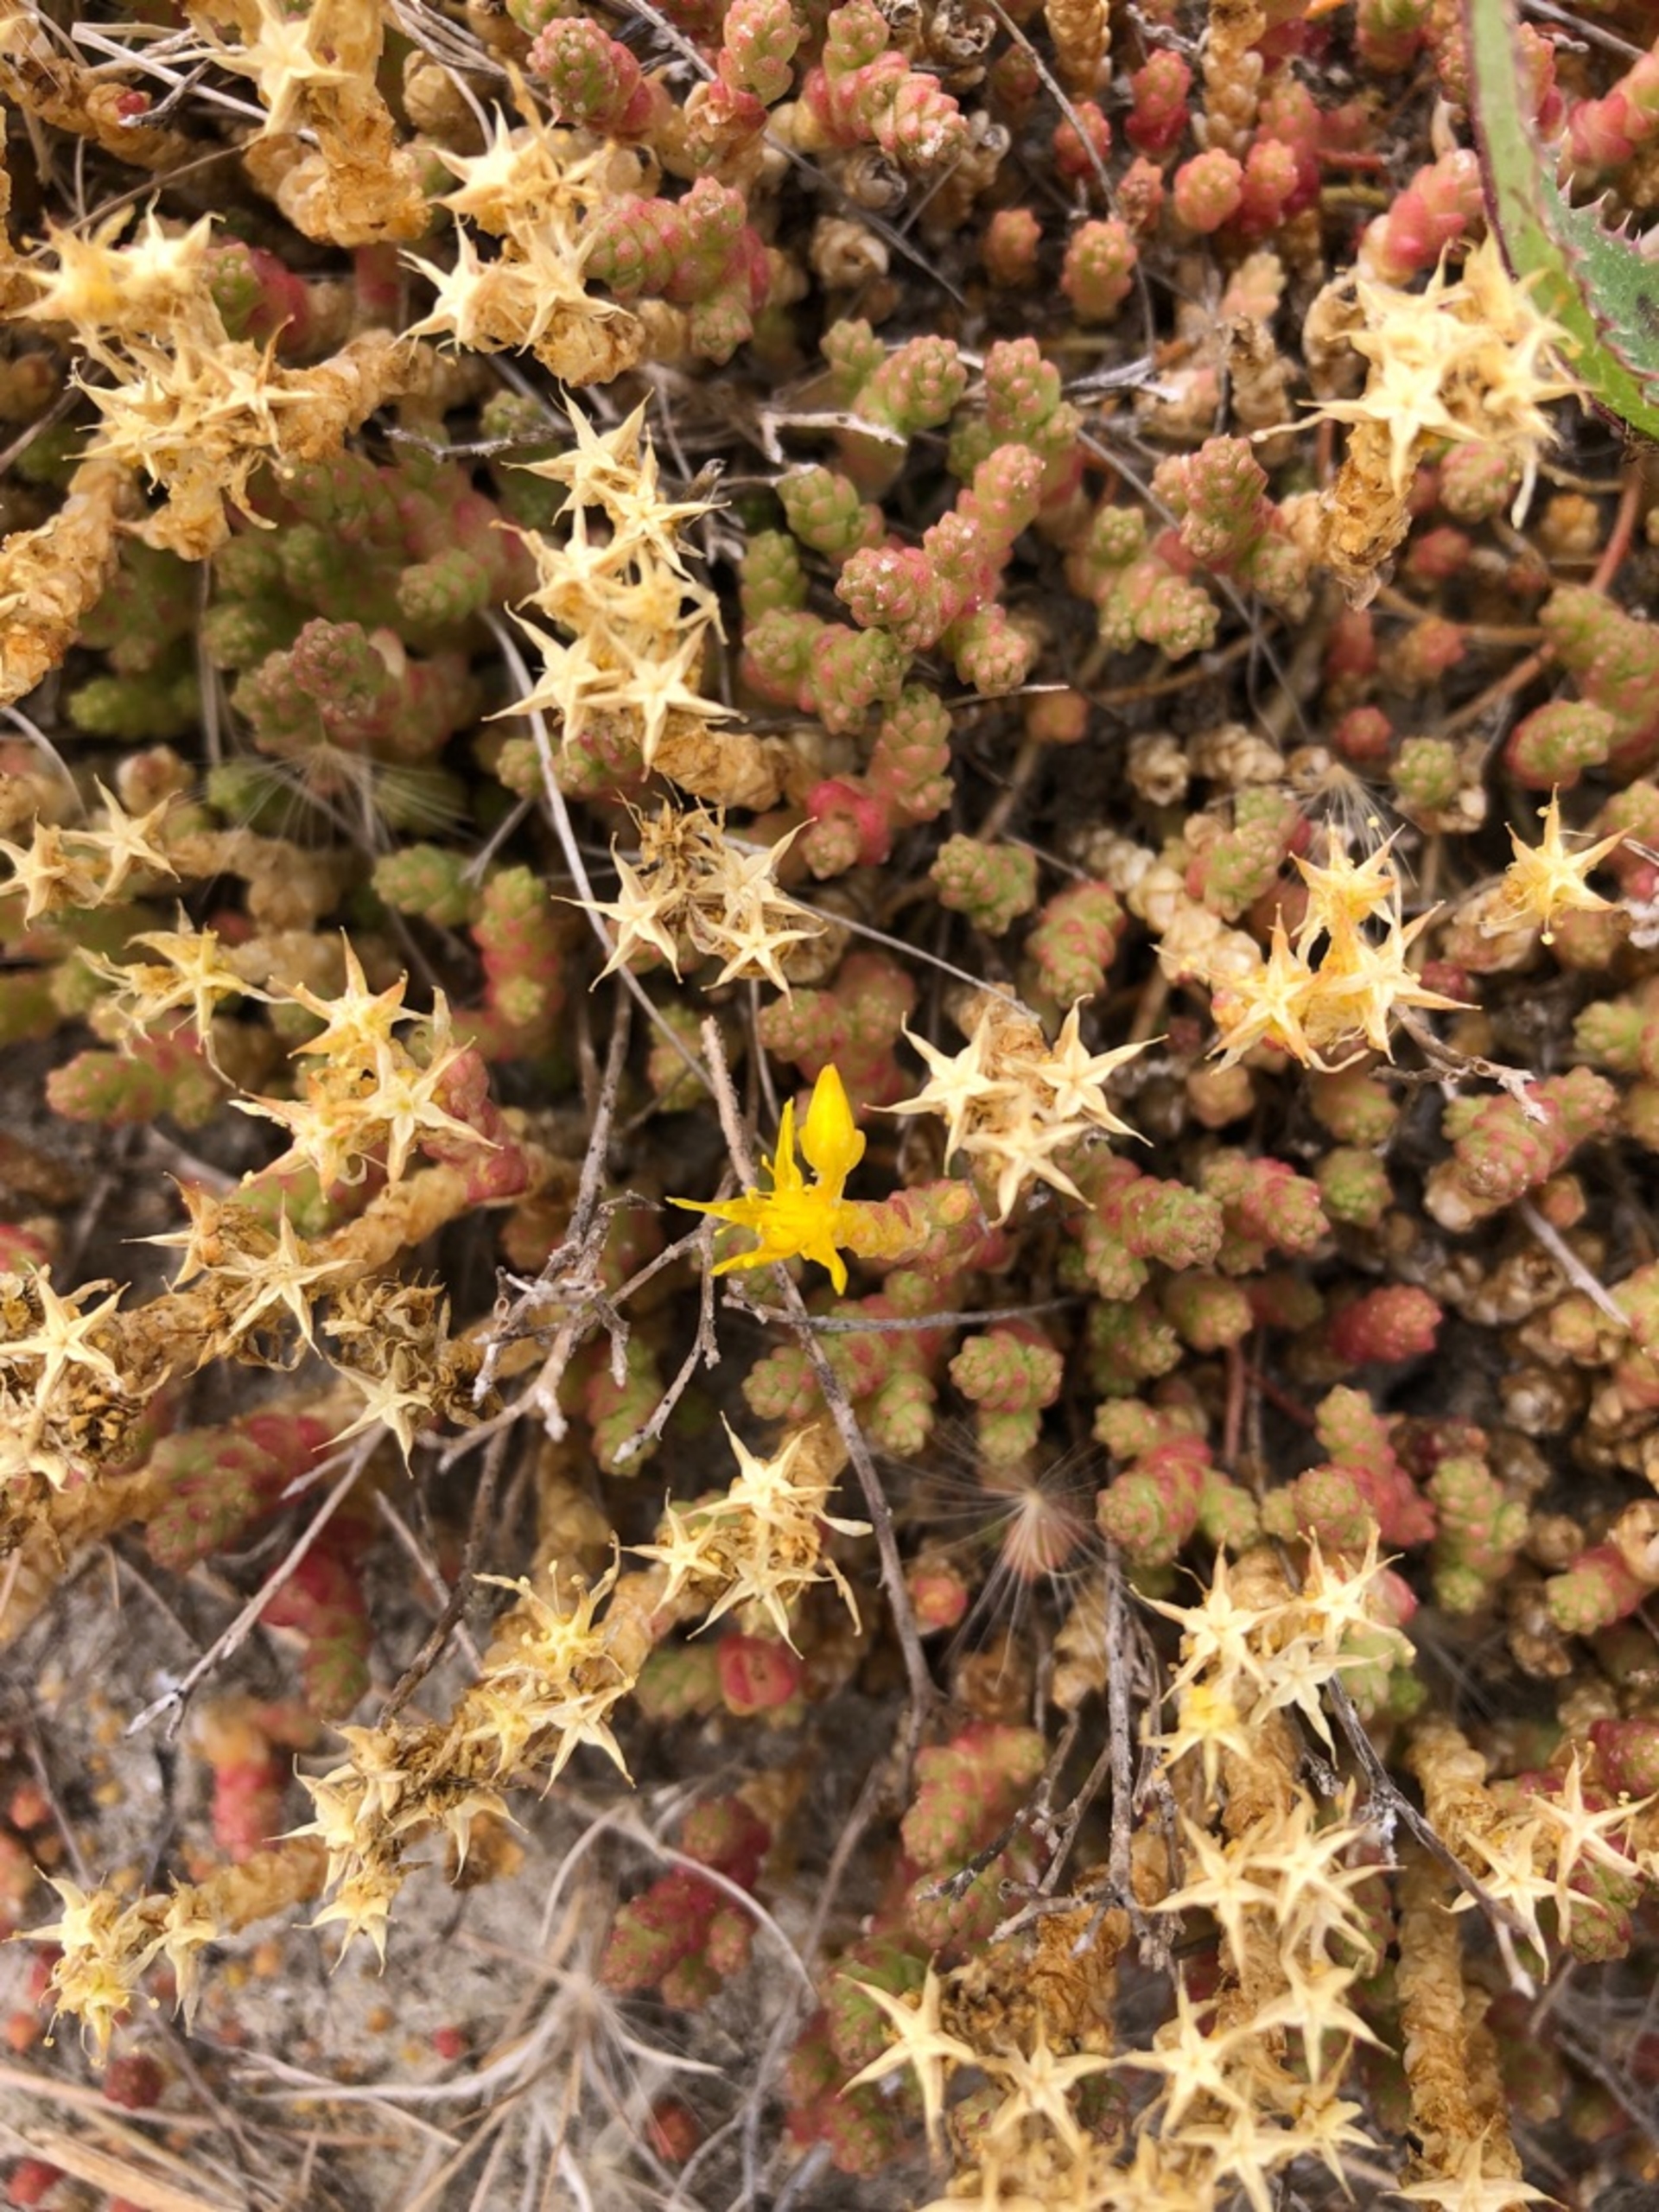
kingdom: Plantae
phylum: Tracheophyta
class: Magnoliopsida
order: Saxifragales
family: Crassulaceae
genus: Sedum
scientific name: Sedum acre
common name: Bidende stenurt
